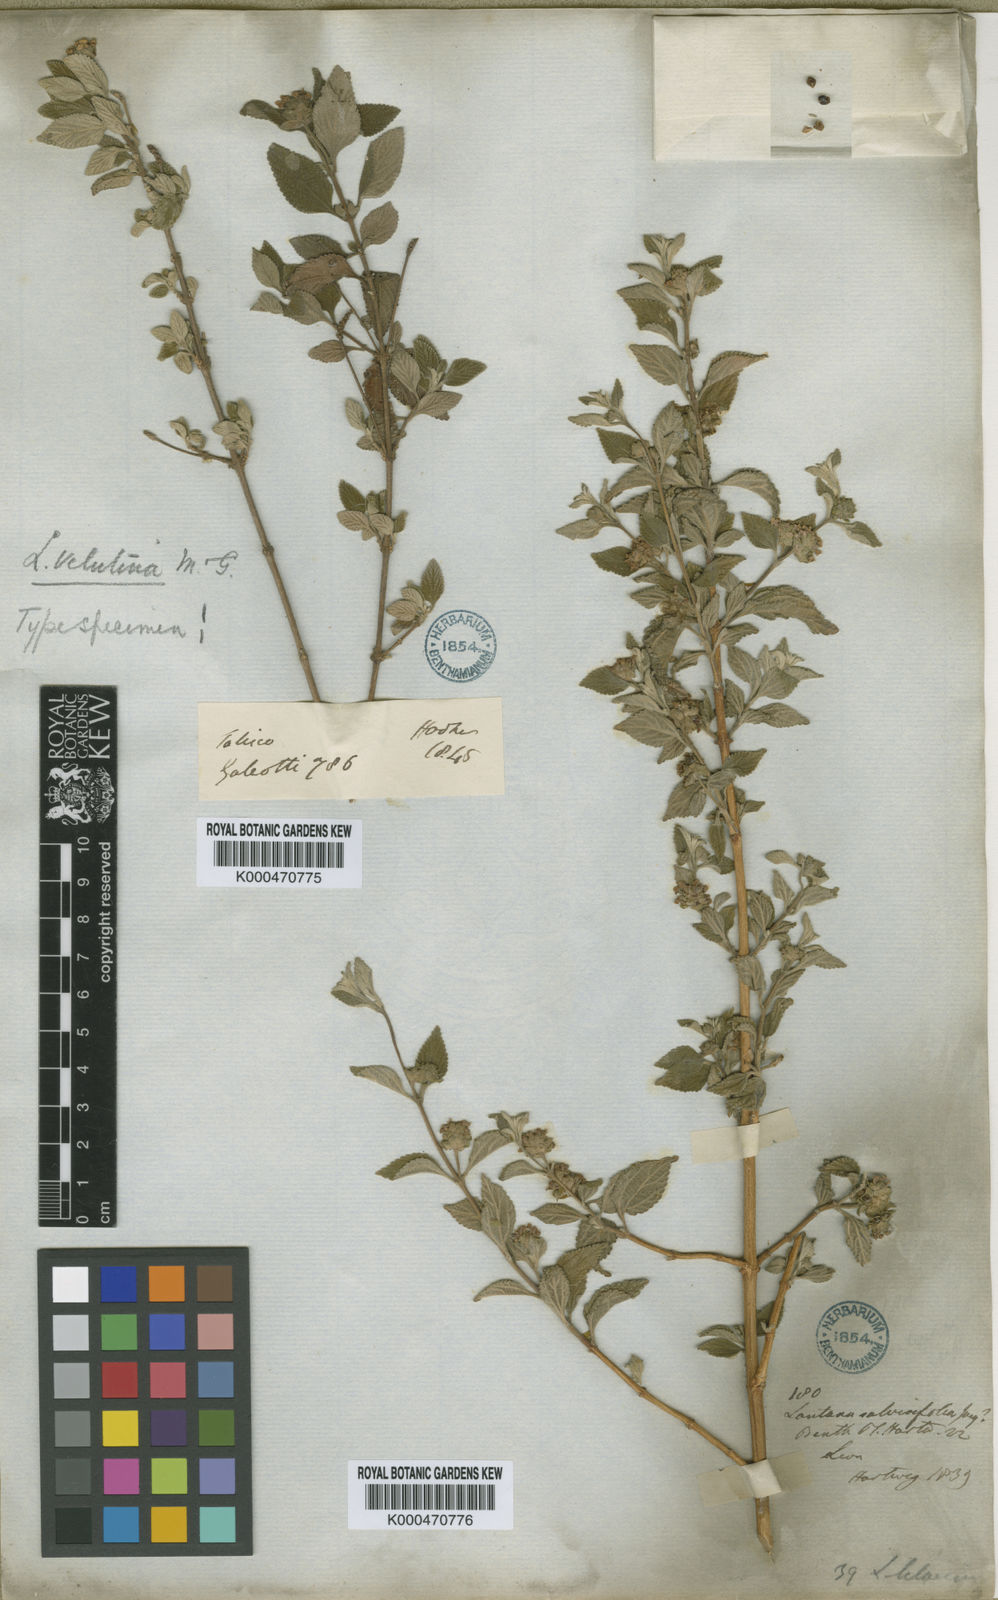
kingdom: Plantae
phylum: Tracheophyta
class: Magnoliopsida
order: Lamiales
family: Verbenaceae
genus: Lantana
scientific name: Lantana velutina
